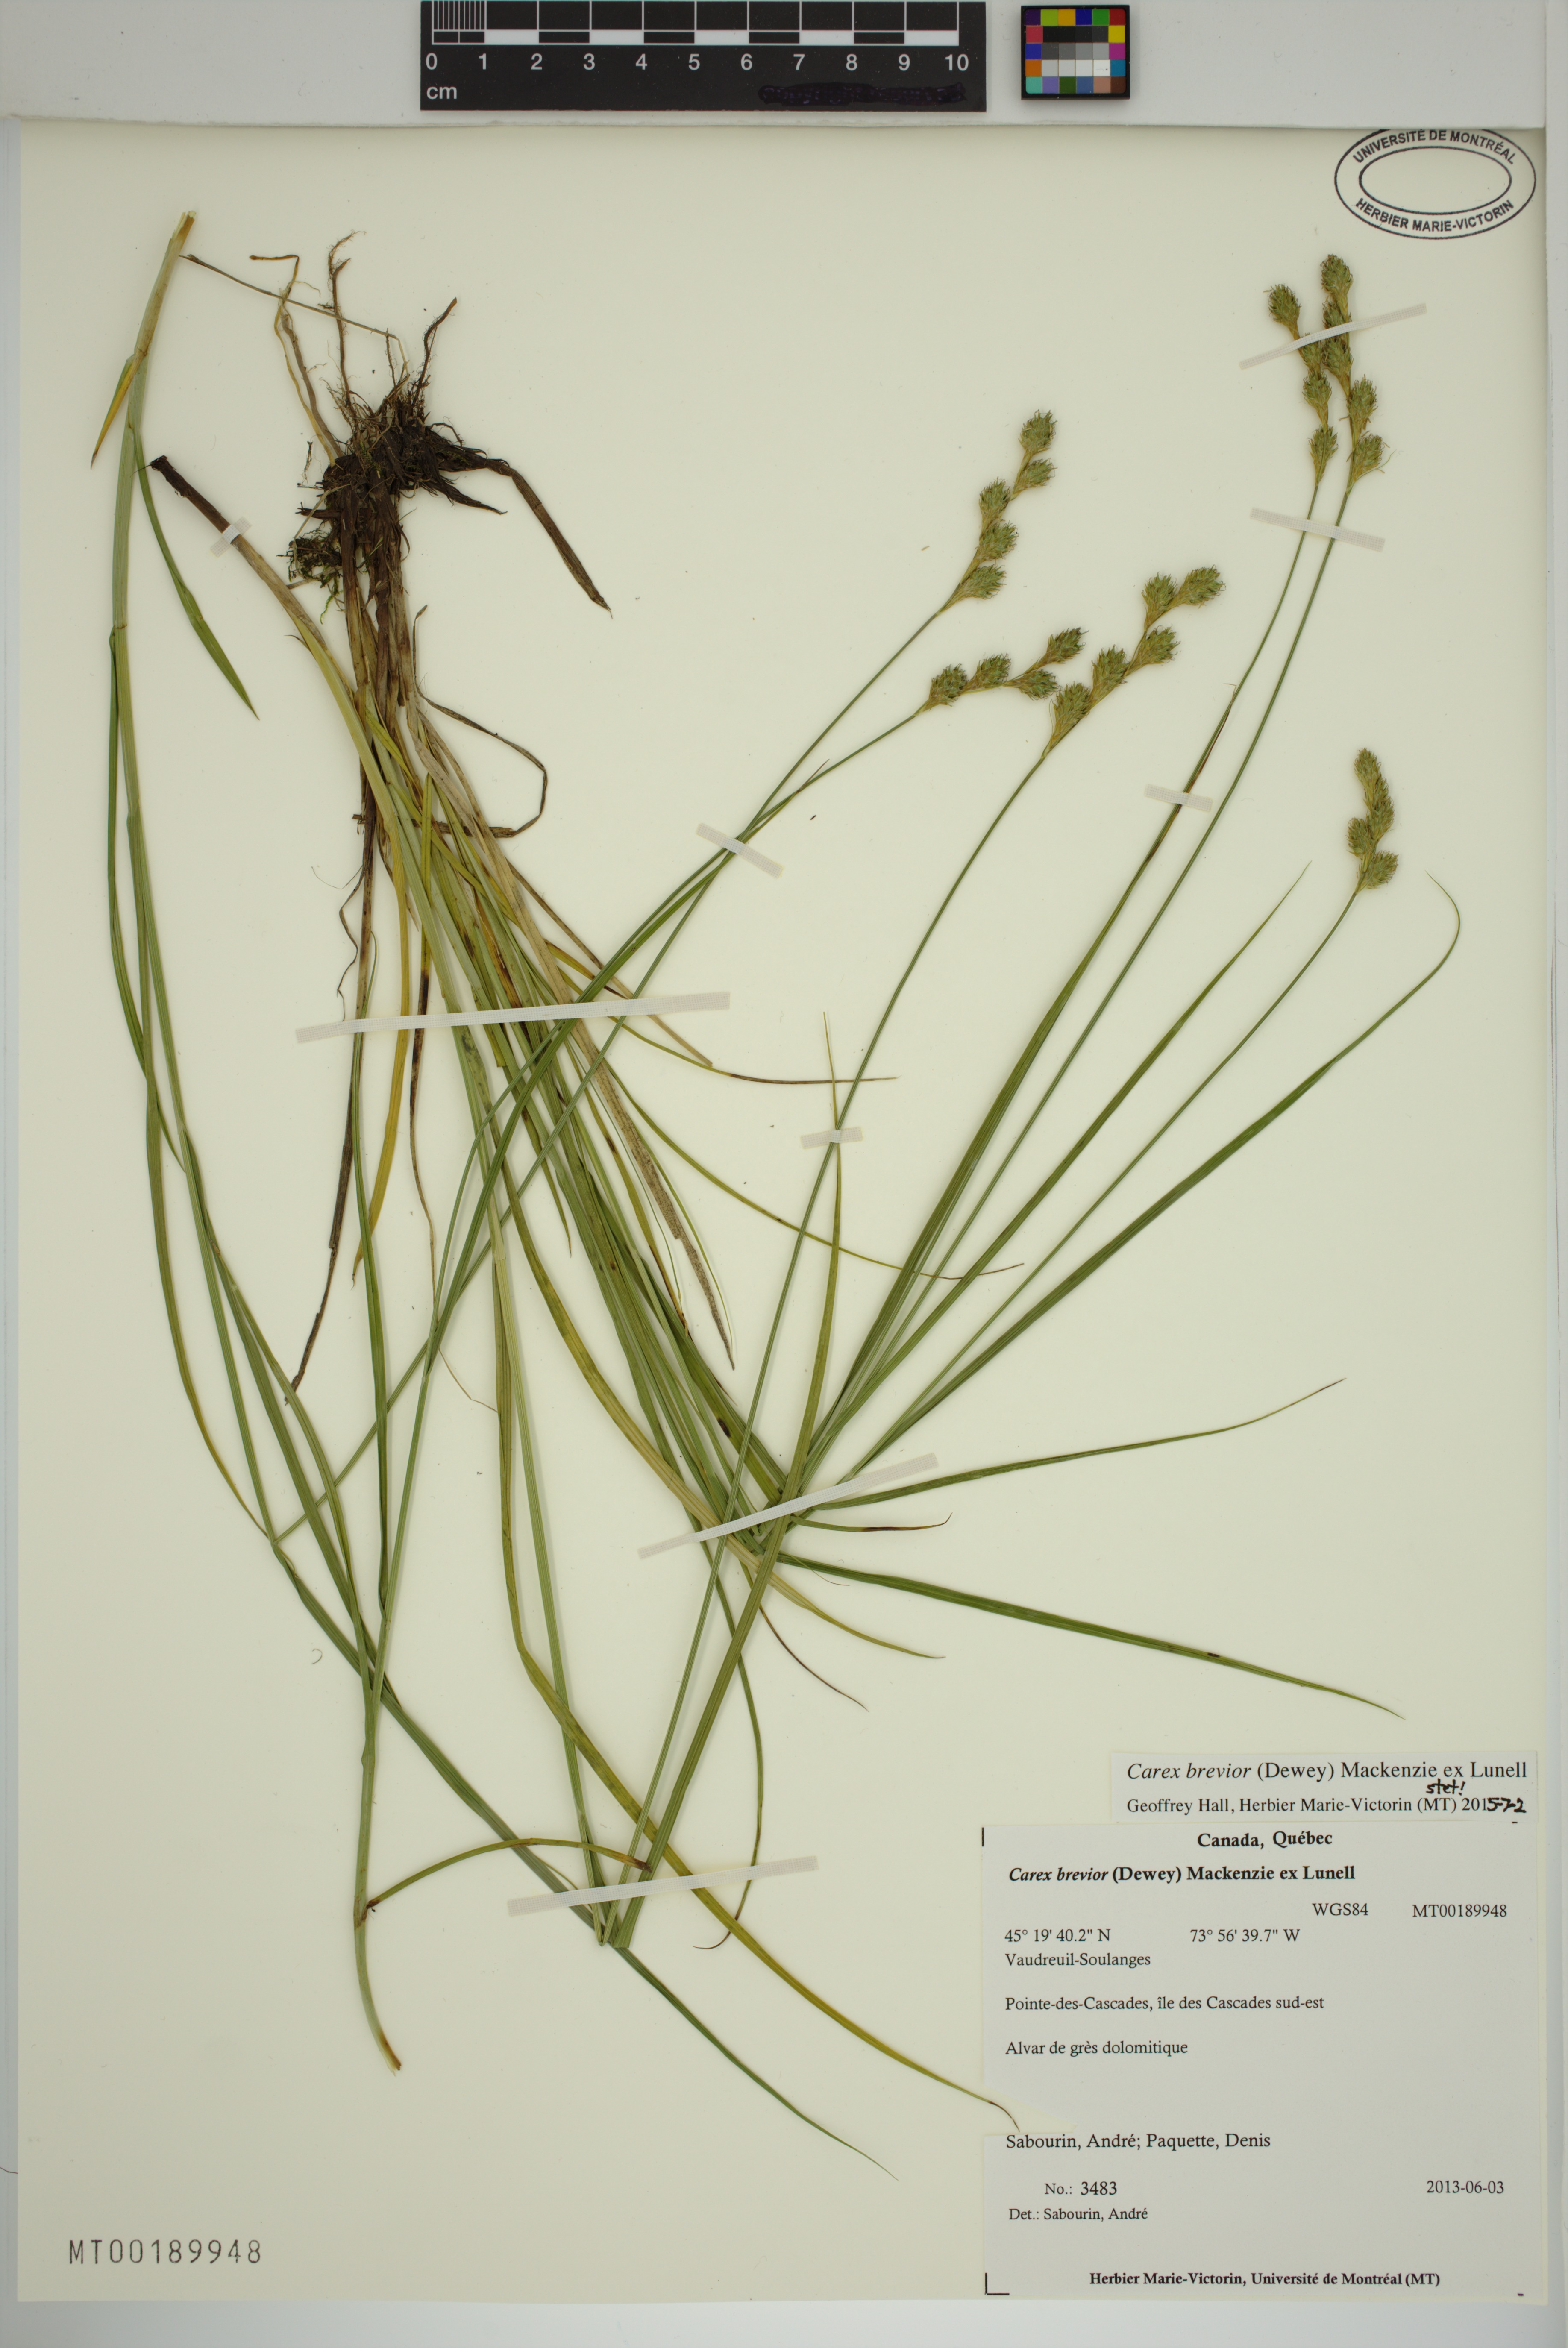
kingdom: Plantae
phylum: Tracheophyta
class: Liliopsida
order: Poales
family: Cyperaceae
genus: Carex
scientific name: Carex brevior
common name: Brevior sedge
